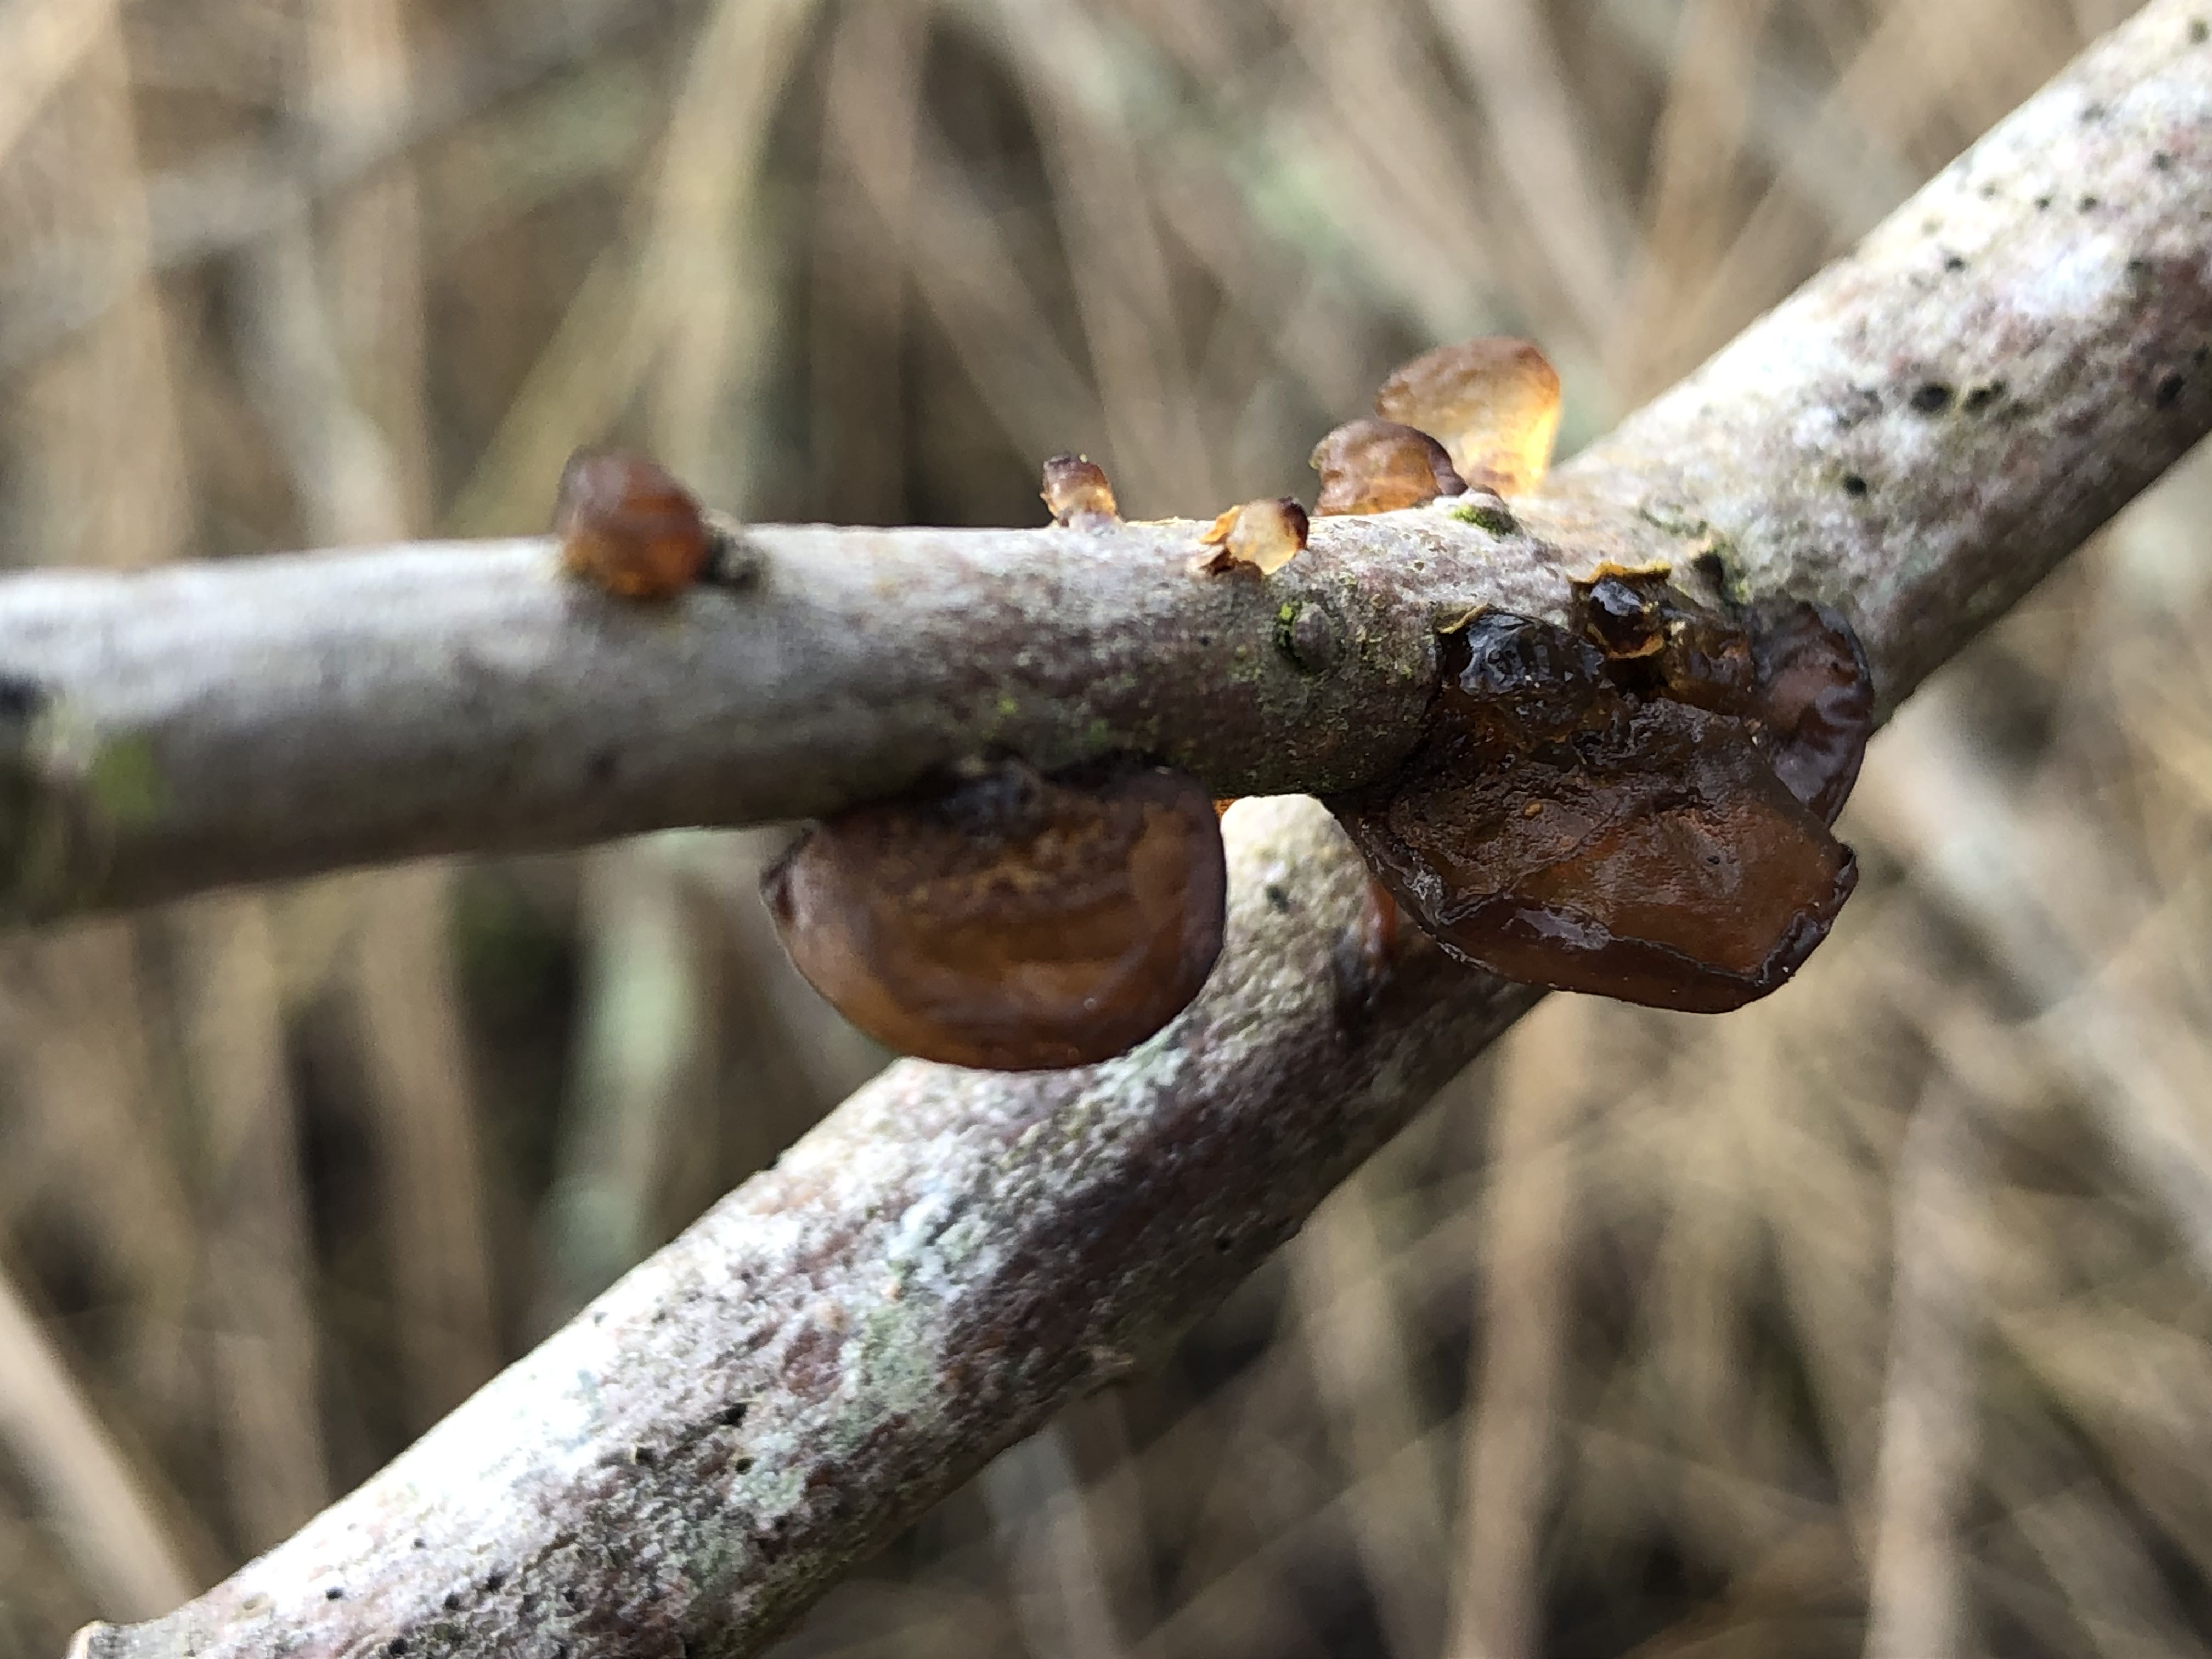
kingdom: Fungi
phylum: Basidiomycota
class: Agaricomycetes
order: Auriculariales
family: Auriculariaceae
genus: Exidia
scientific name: Exidia recisa
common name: pile-bævretop
